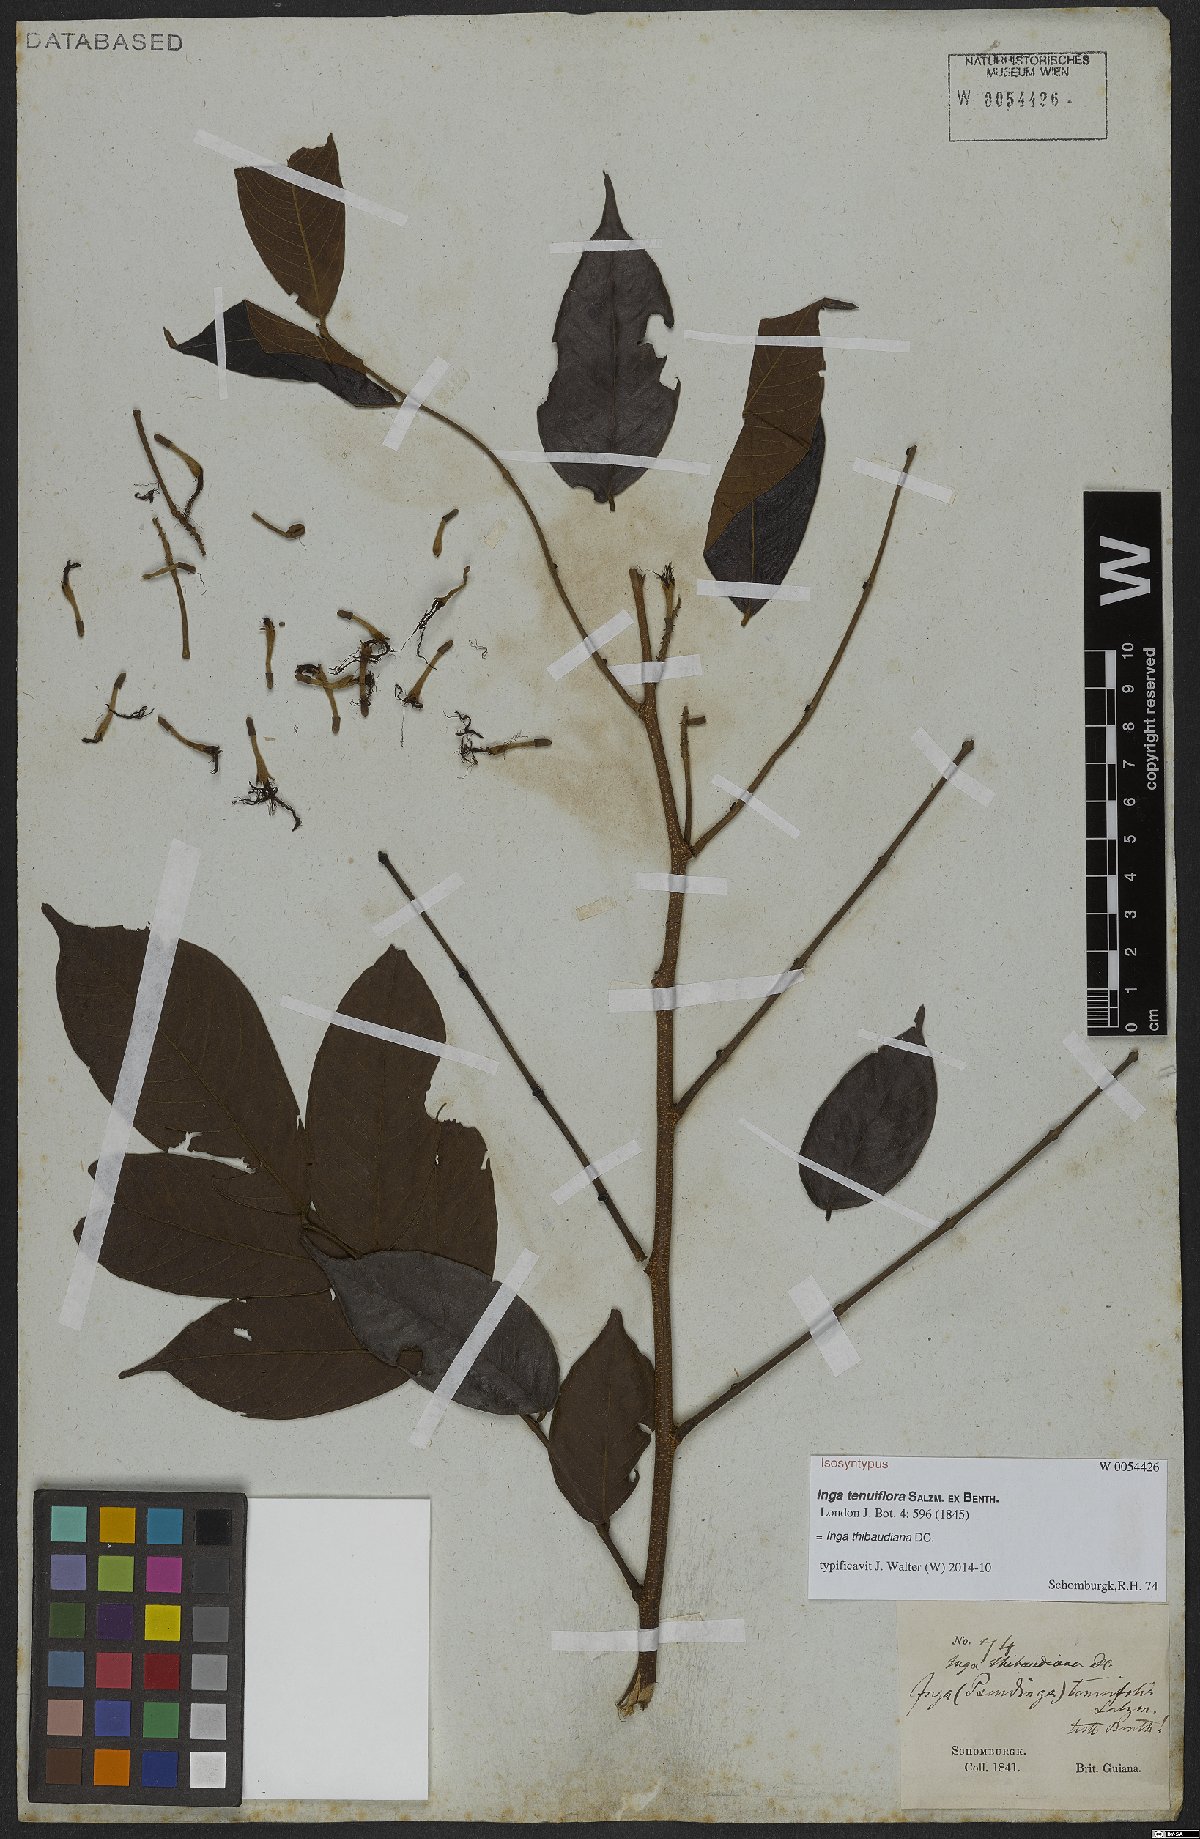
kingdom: Plantae
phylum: Tracheophyta
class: Magnoliopsida
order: Fabales
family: Fabaceae
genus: Inga
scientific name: Inga thibaudiana
